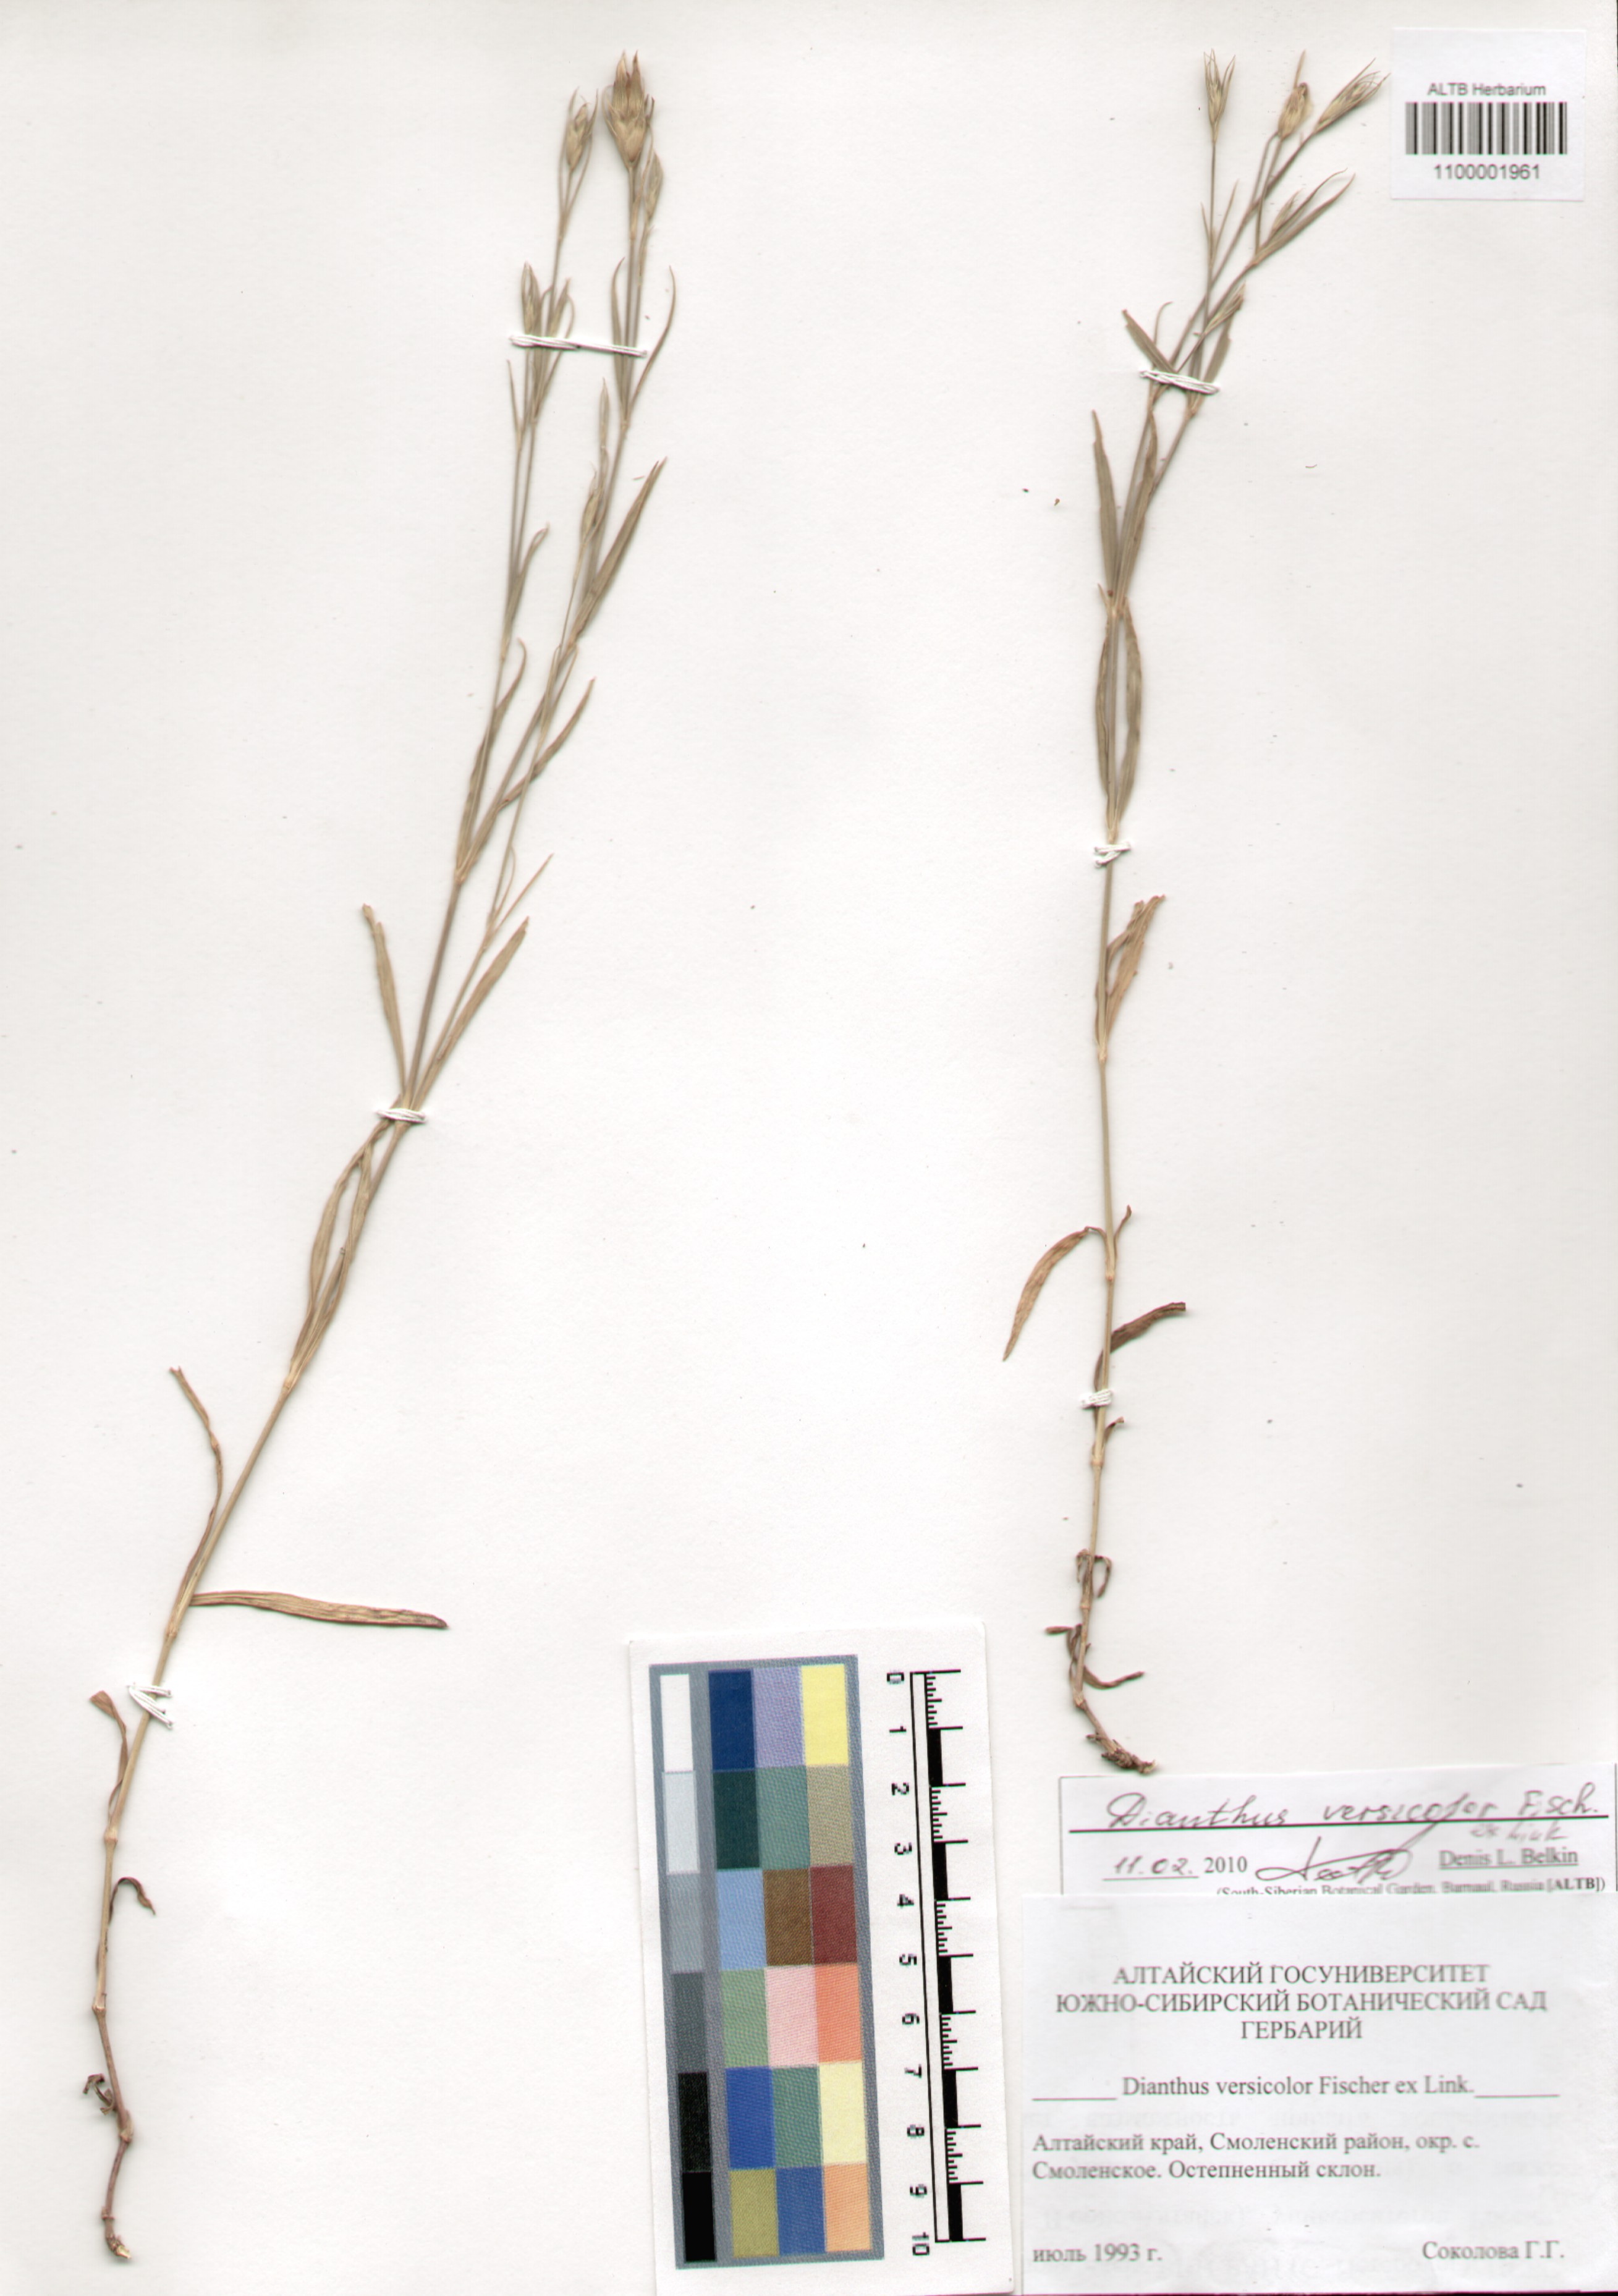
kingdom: Plantae
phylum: Tracheophyta
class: Magnoliopsida
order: Caryophyllales
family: Caryophyllaceae
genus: Dianthus
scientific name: Dianthus chinensis
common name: Rainbow pink
